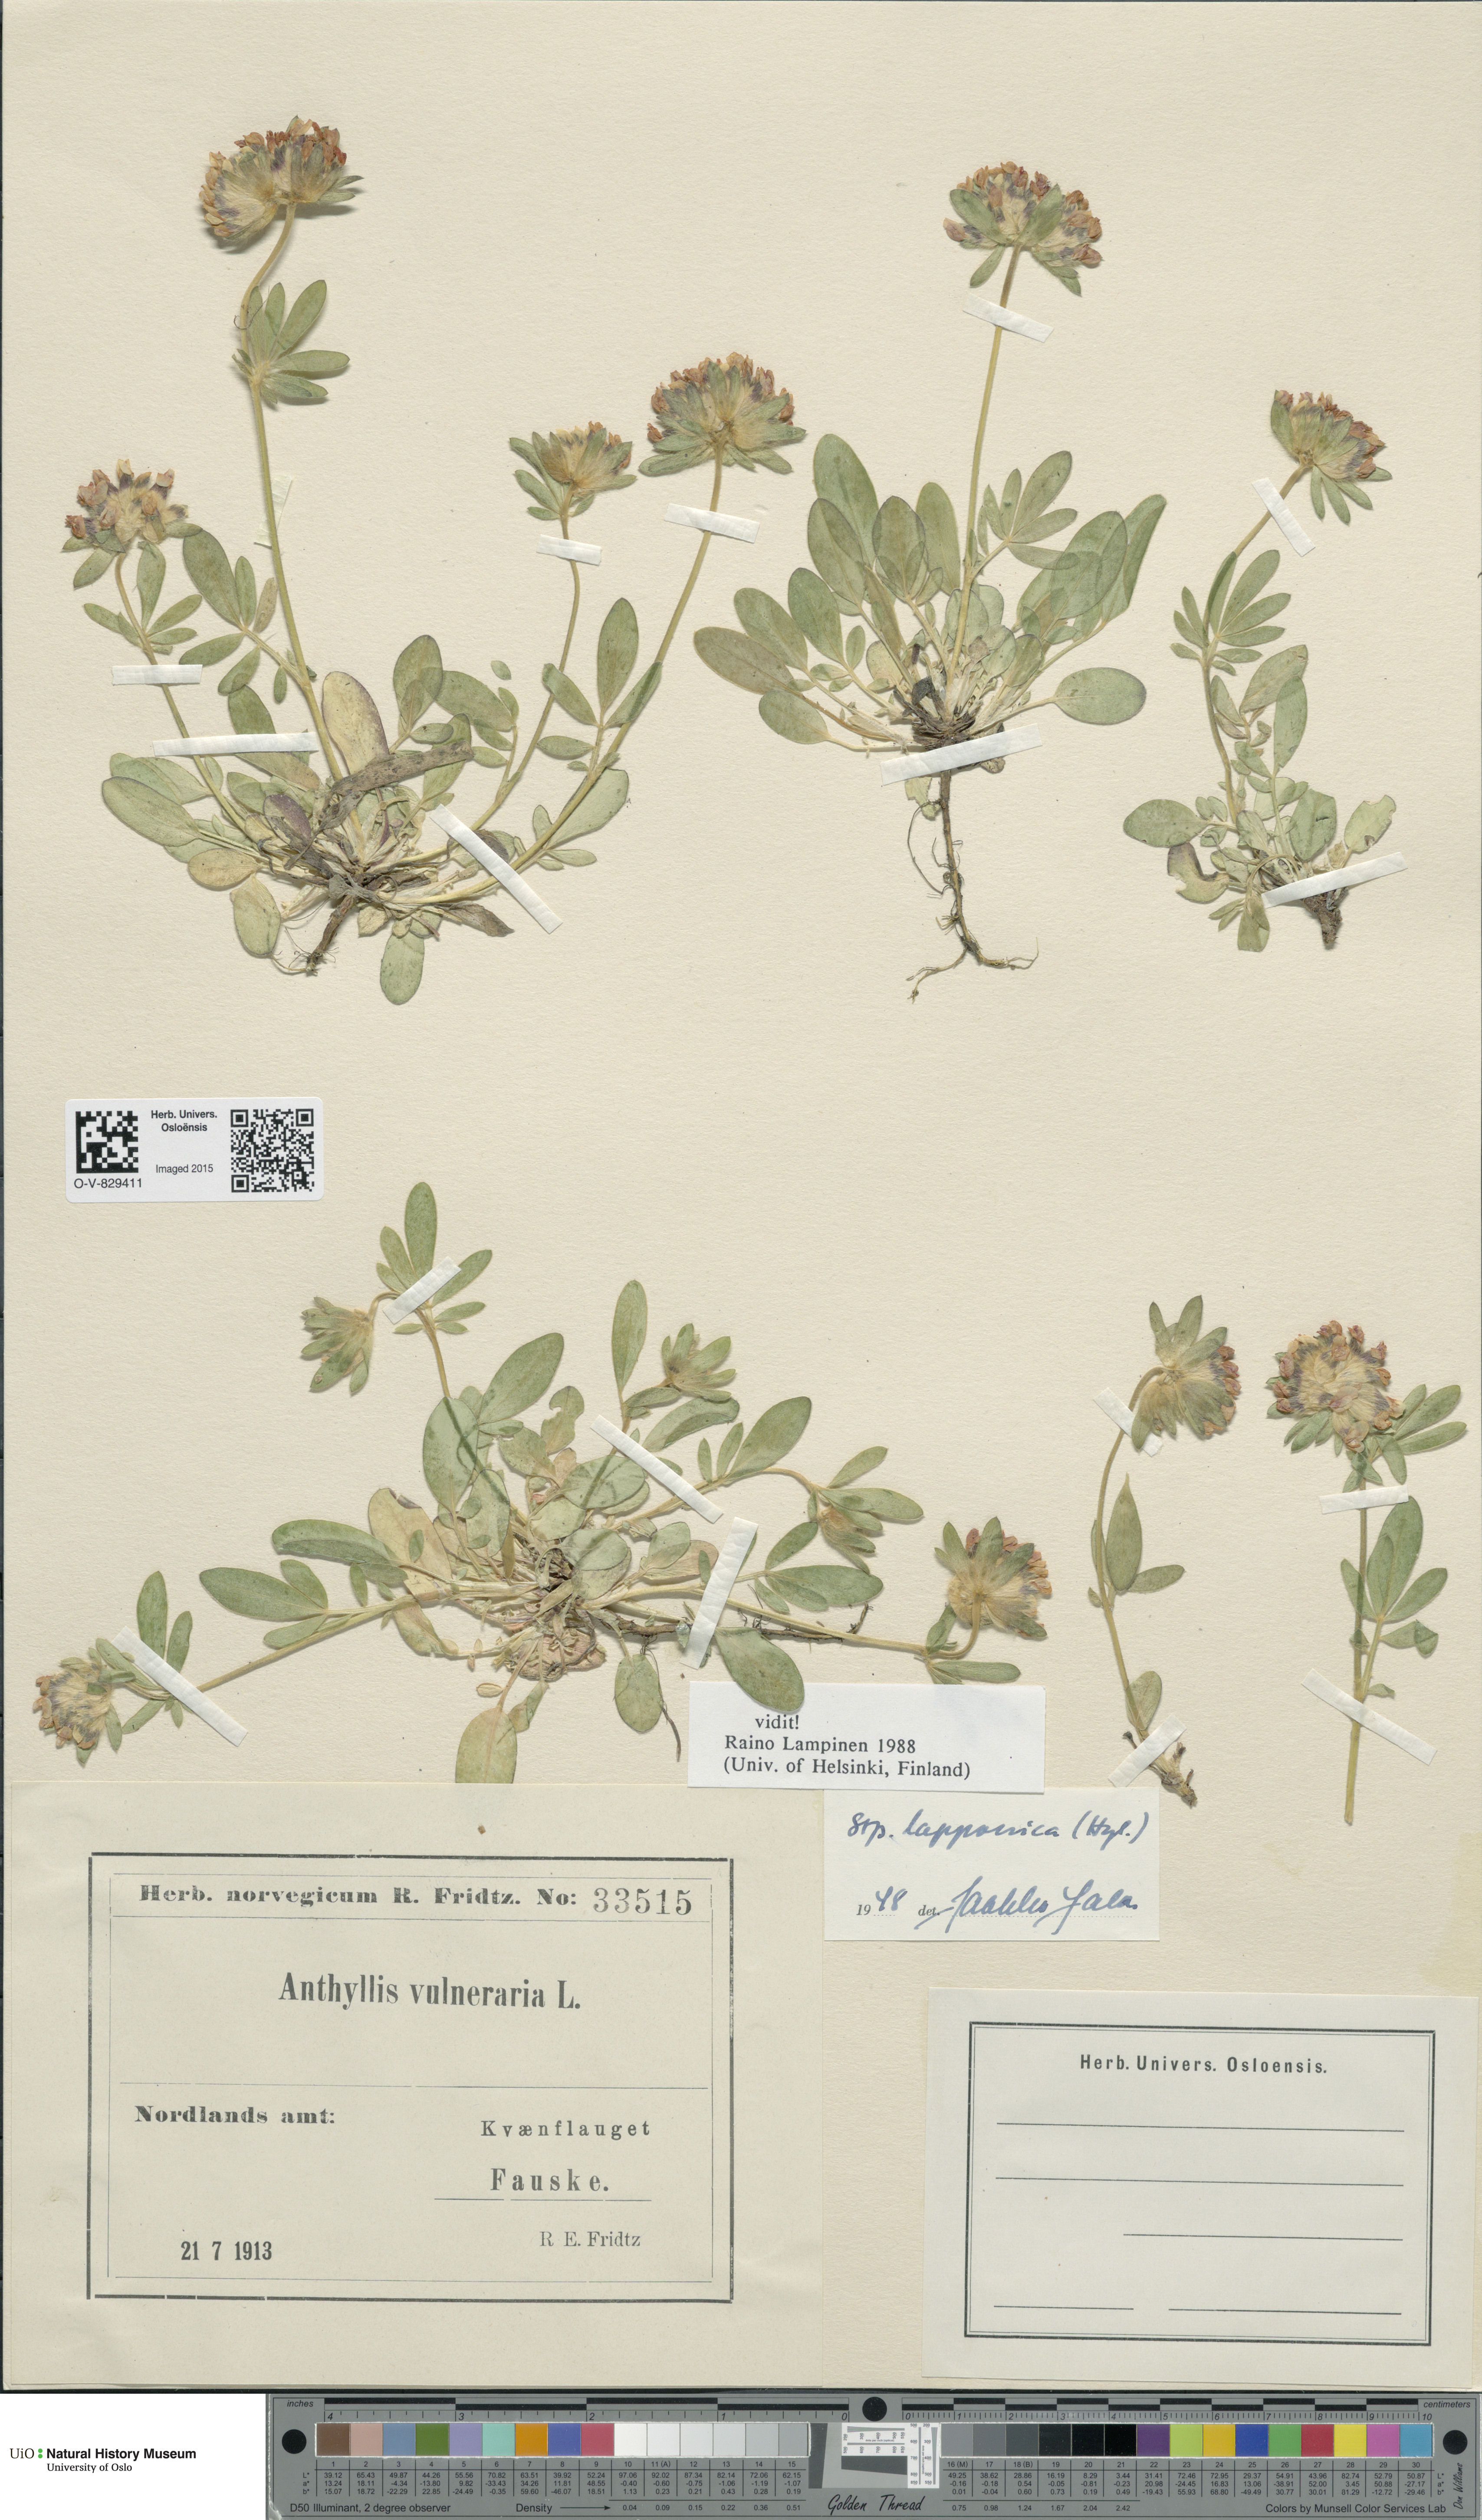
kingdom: Plantae
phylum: Tracheophyta
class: Magnoliopsida
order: Fabales
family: Fabaceae
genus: Anthyllis
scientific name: Anthyllis vulneraria
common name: Kidney vetch
